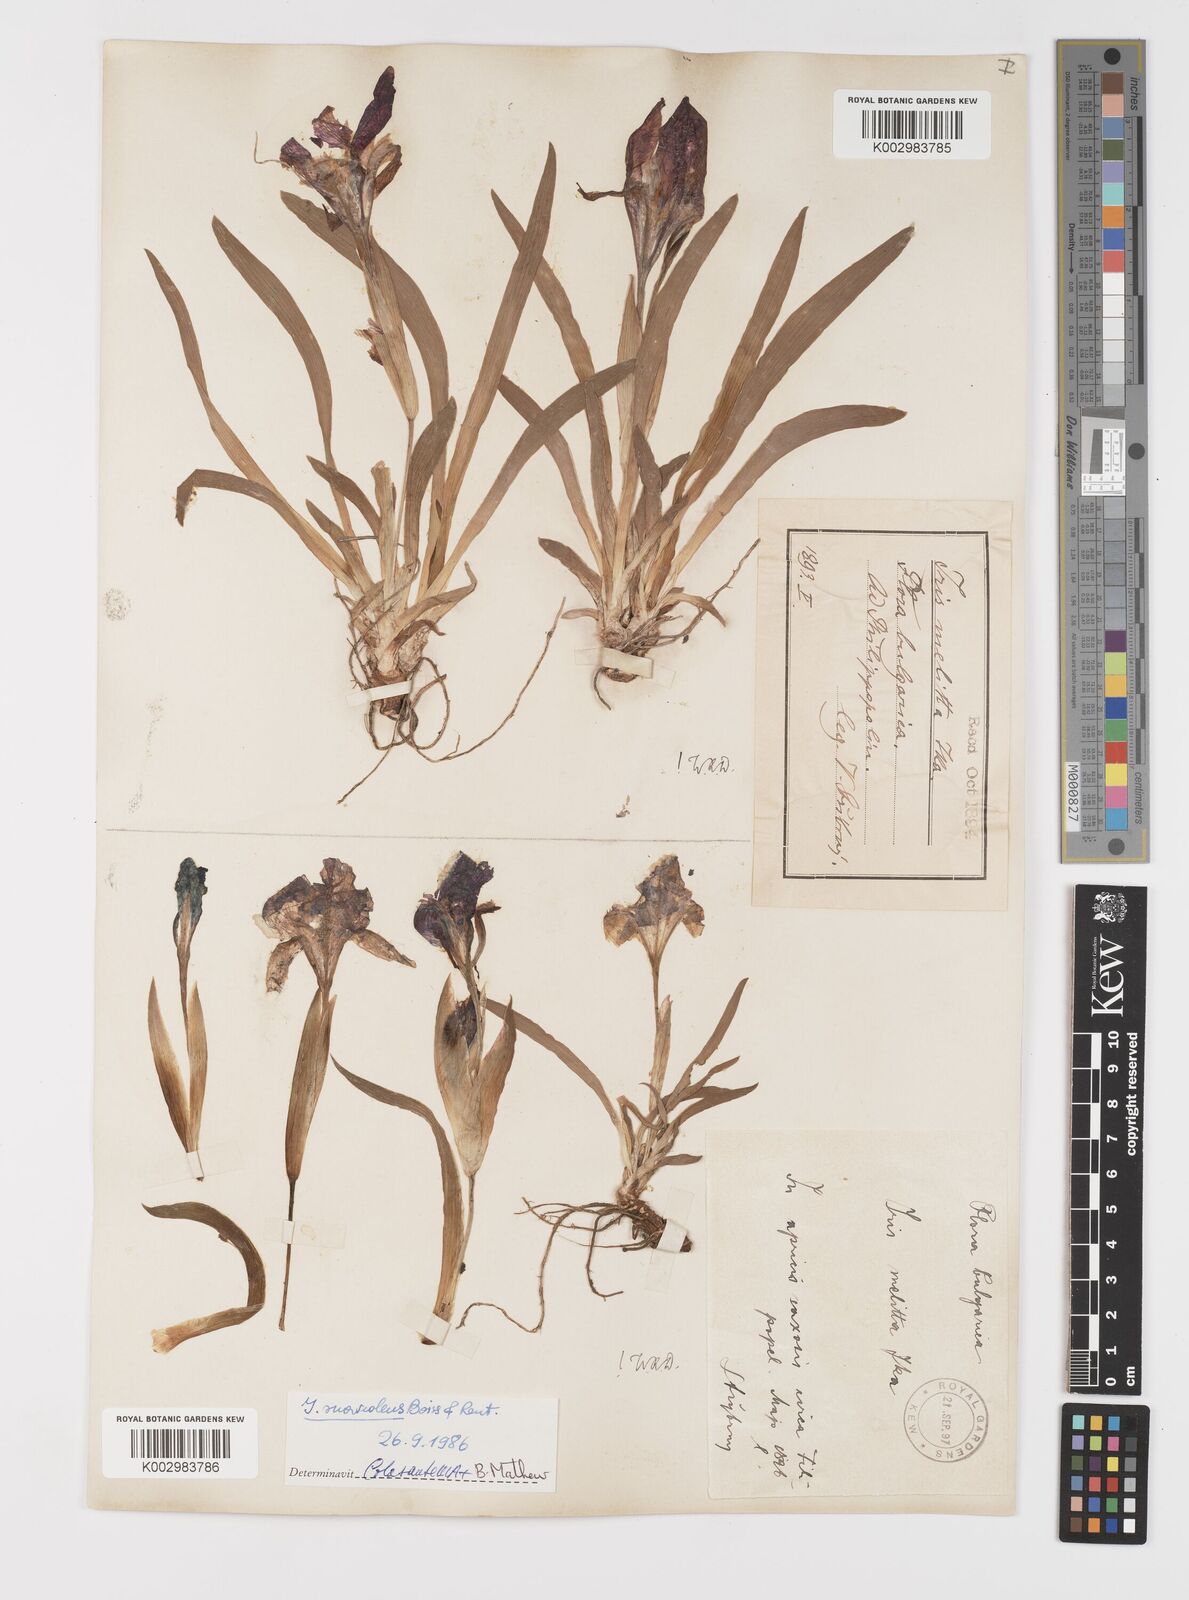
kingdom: Plantae
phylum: Tracheophyta
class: Liliopsida
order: Asparagales
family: Iridaceae
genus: Iris
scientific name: Iris suaveolens
